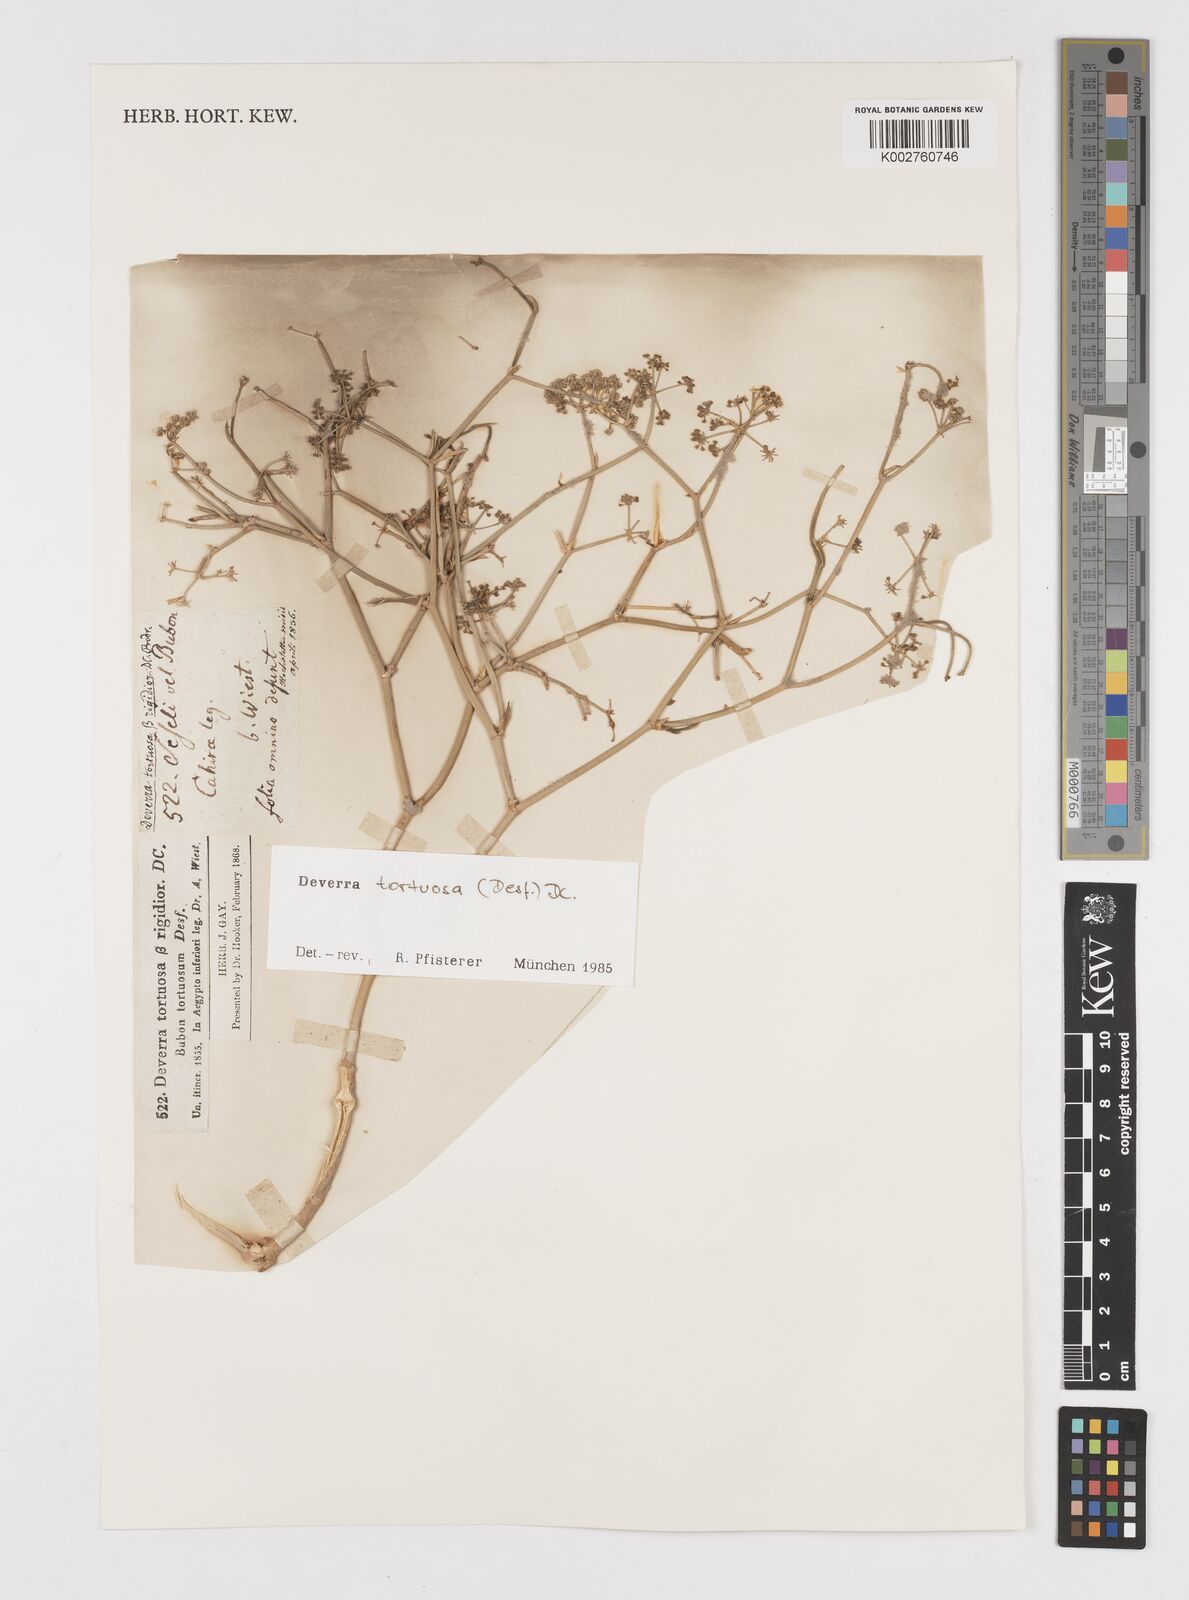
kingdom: Plantae
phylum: Tracheophyta
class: Magnoliopsida
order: Apiales
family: Apiaceae
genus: Deverra
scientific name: Deverra tortuosa
